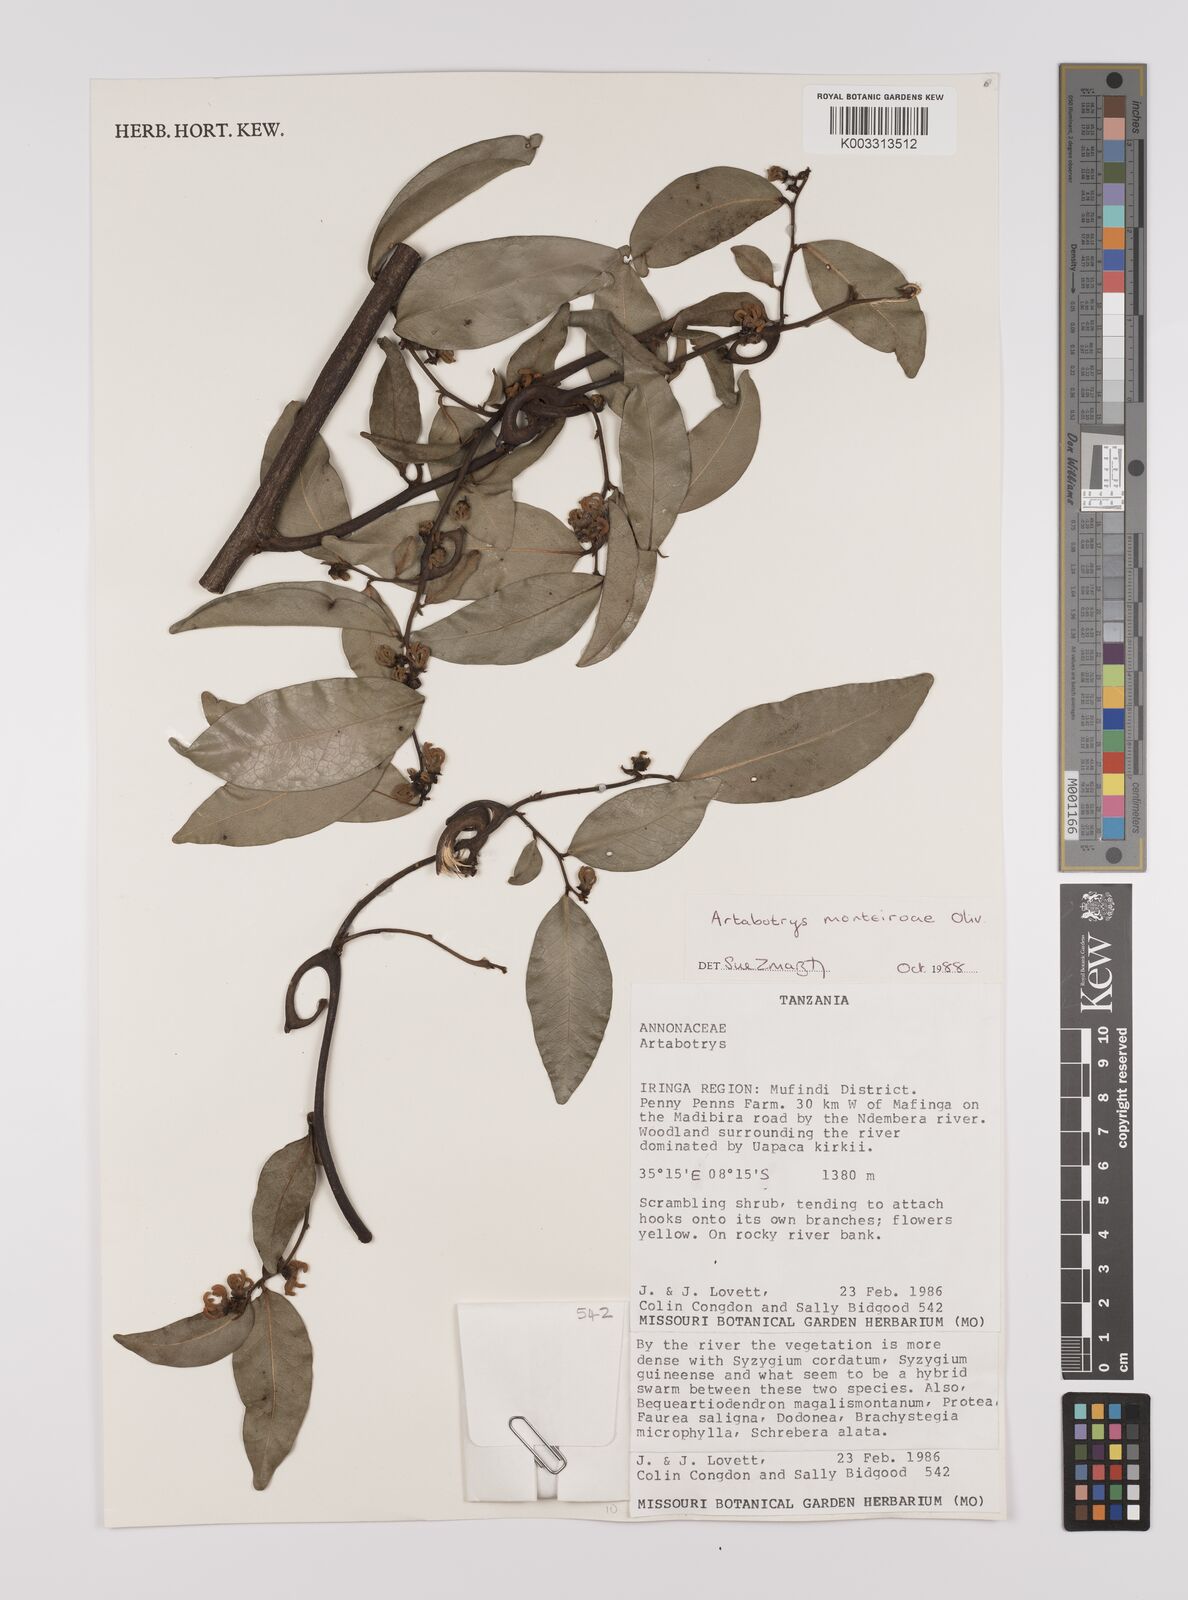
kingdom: Plantae
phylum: Tracheophyta
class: Magnoliopsida
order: Magnoliales
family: Annonaceae
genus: Artabotrys
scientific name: Artabotrys monteiroae
